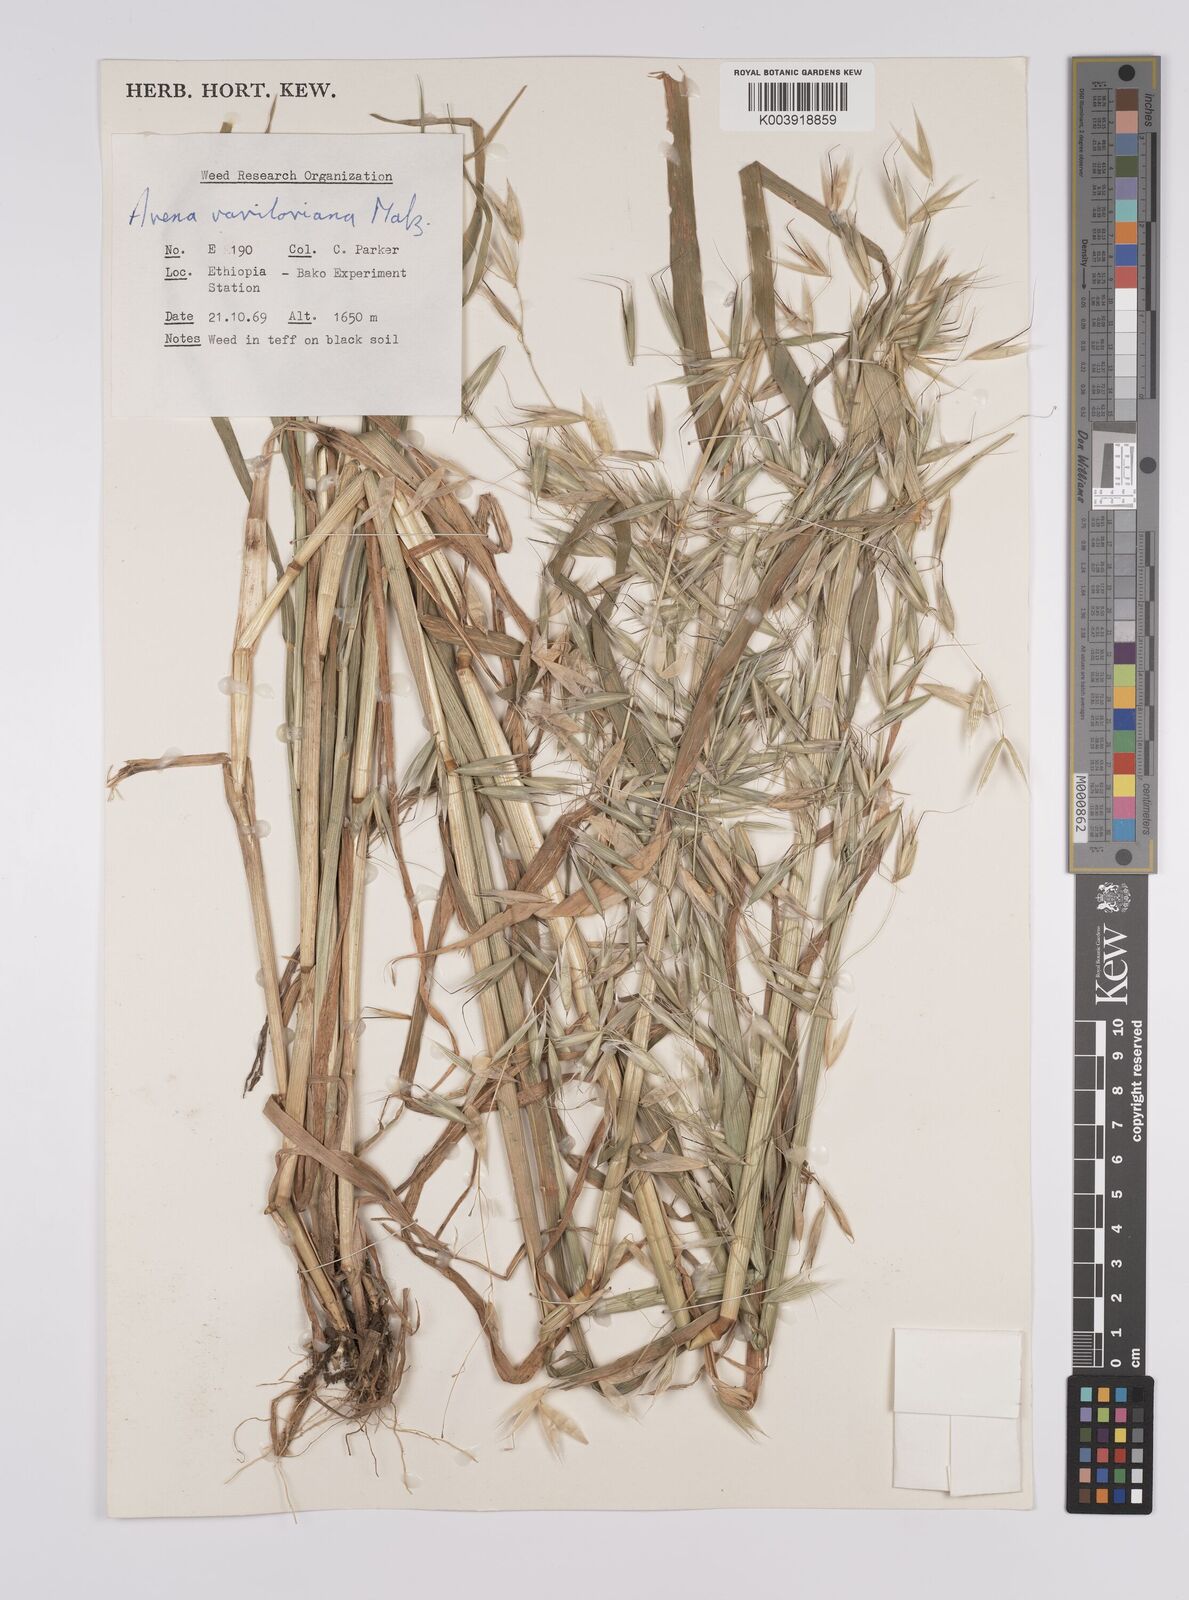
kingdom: Plantae
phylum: Tracheophyta
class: Liliopsida
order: Poales
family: Poaceae
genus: Avena
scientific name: Avena vaviloviana
